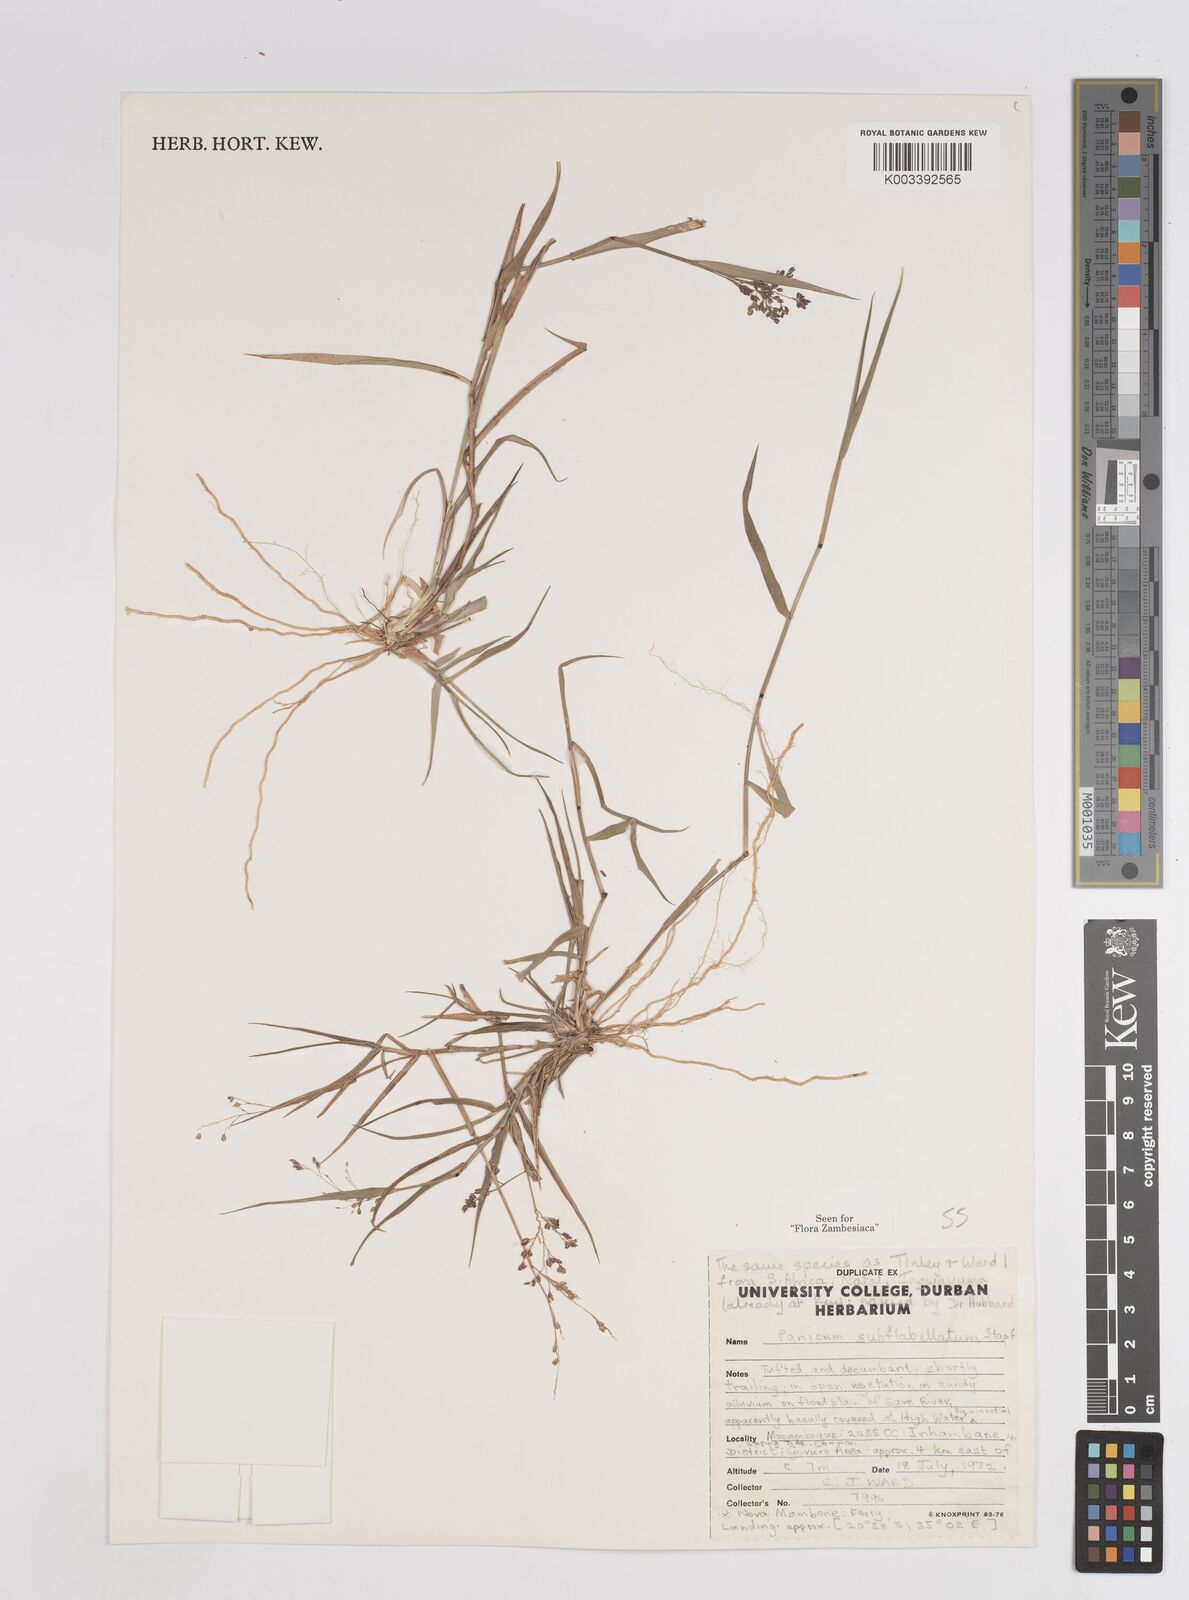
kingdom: Plantae
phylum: Tracheophyta
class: Liliopsida
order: Poales
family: Poaceae
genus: Panicum
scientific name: Panicum subflabellatum
